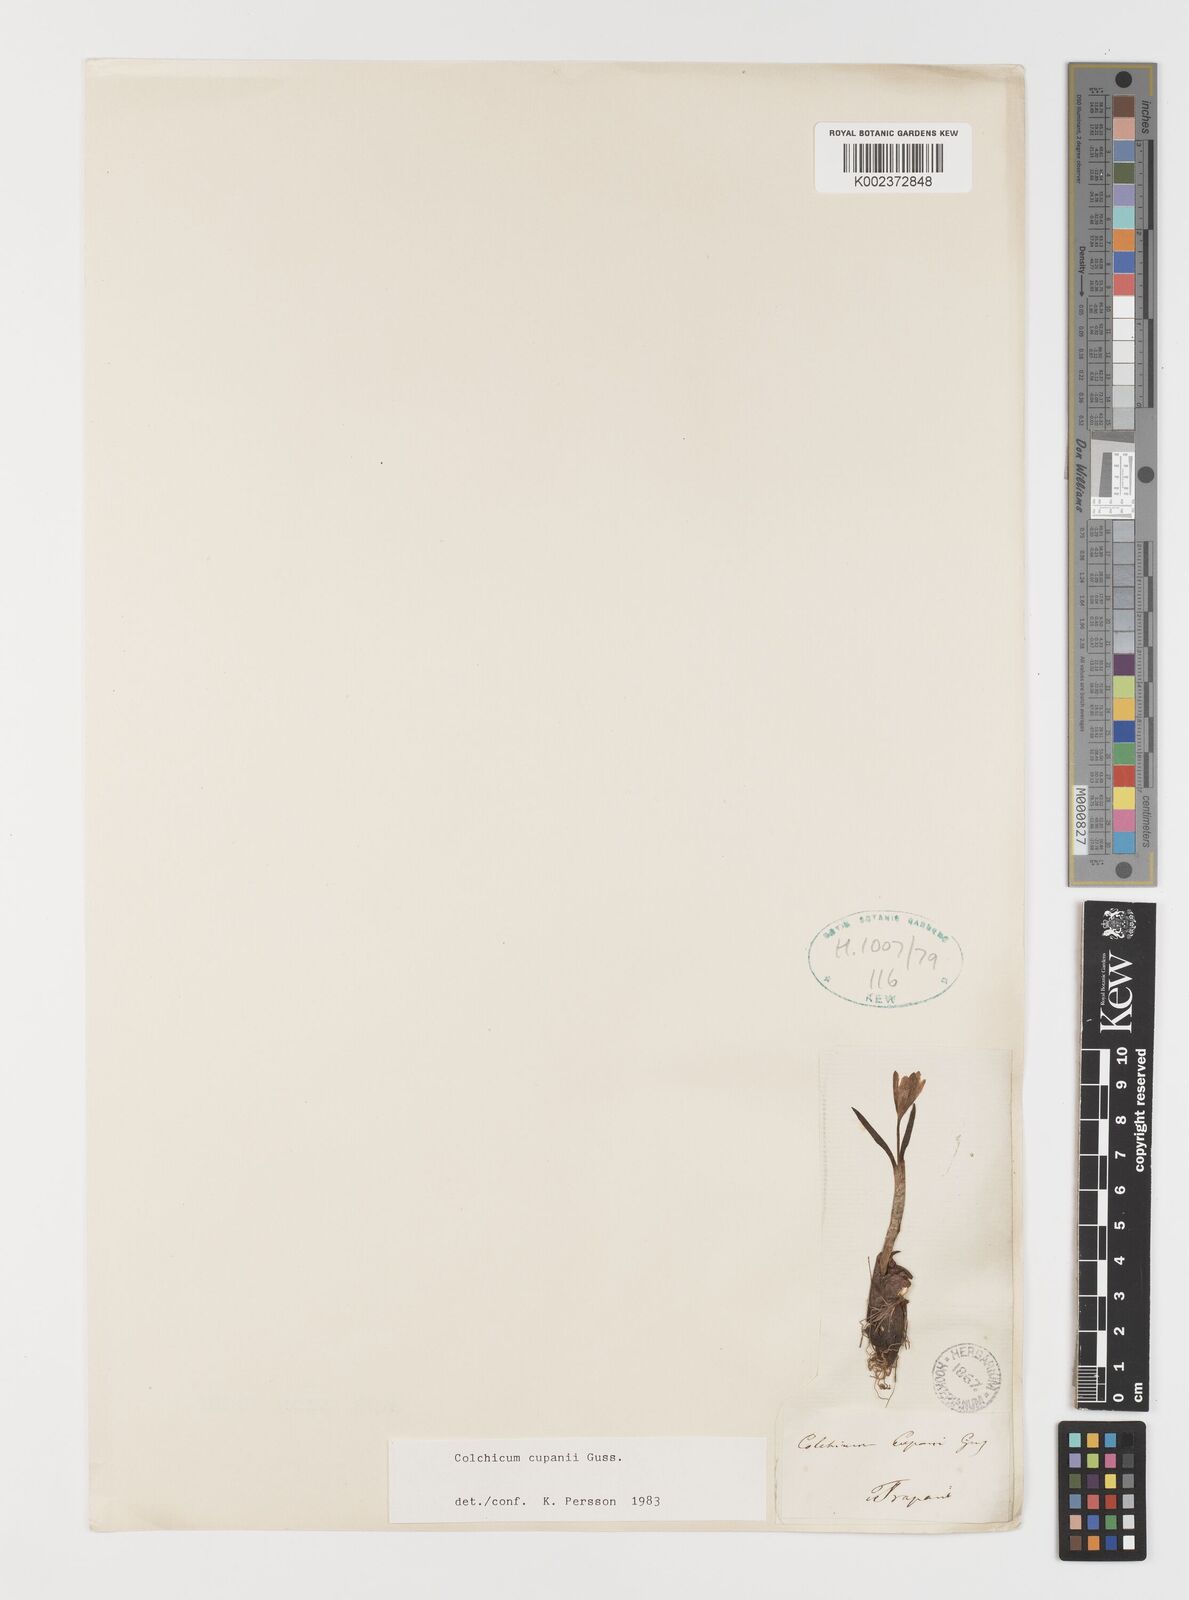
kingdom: Plantae
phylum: Tracheophyta
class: Liliopsida
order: Liliales
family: Colchicaceae
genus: Colchicum
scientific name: Colchicum cupanii
